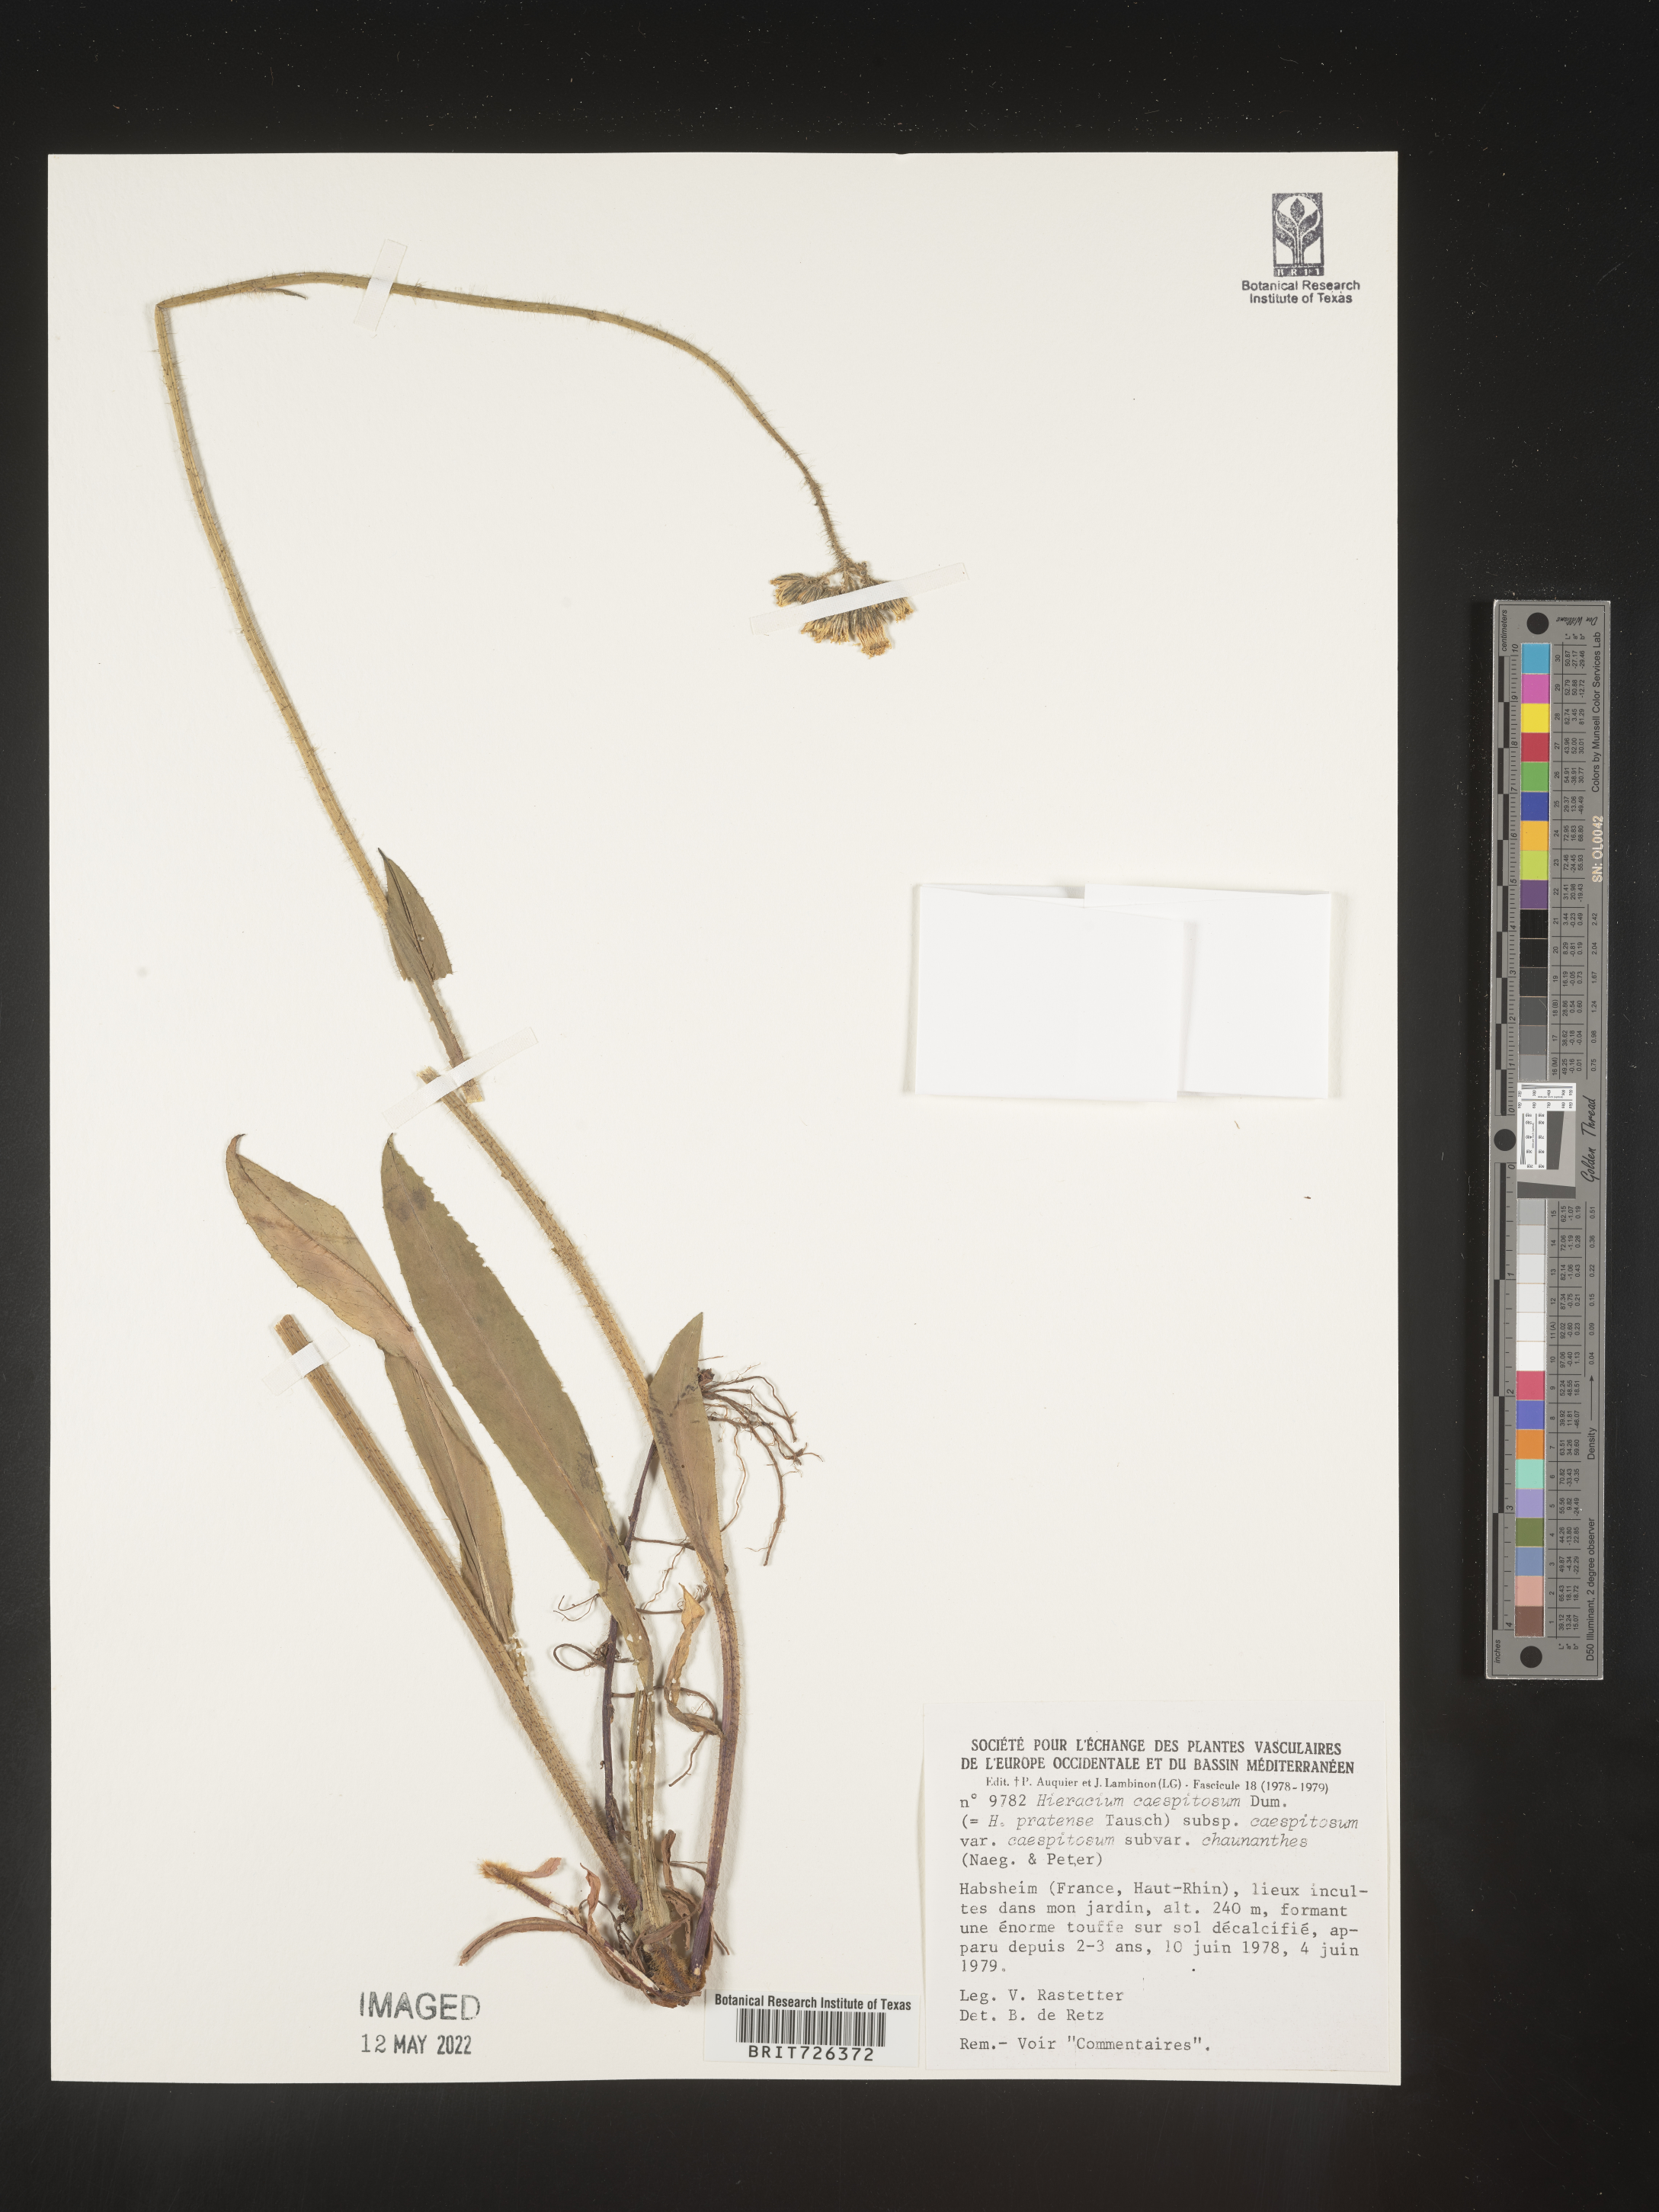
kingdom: Plantae
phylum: Tracheophyta
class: Magnoliopsida
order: Asterales
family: Asteraceae
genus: Hieracium
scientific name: Hieracium
